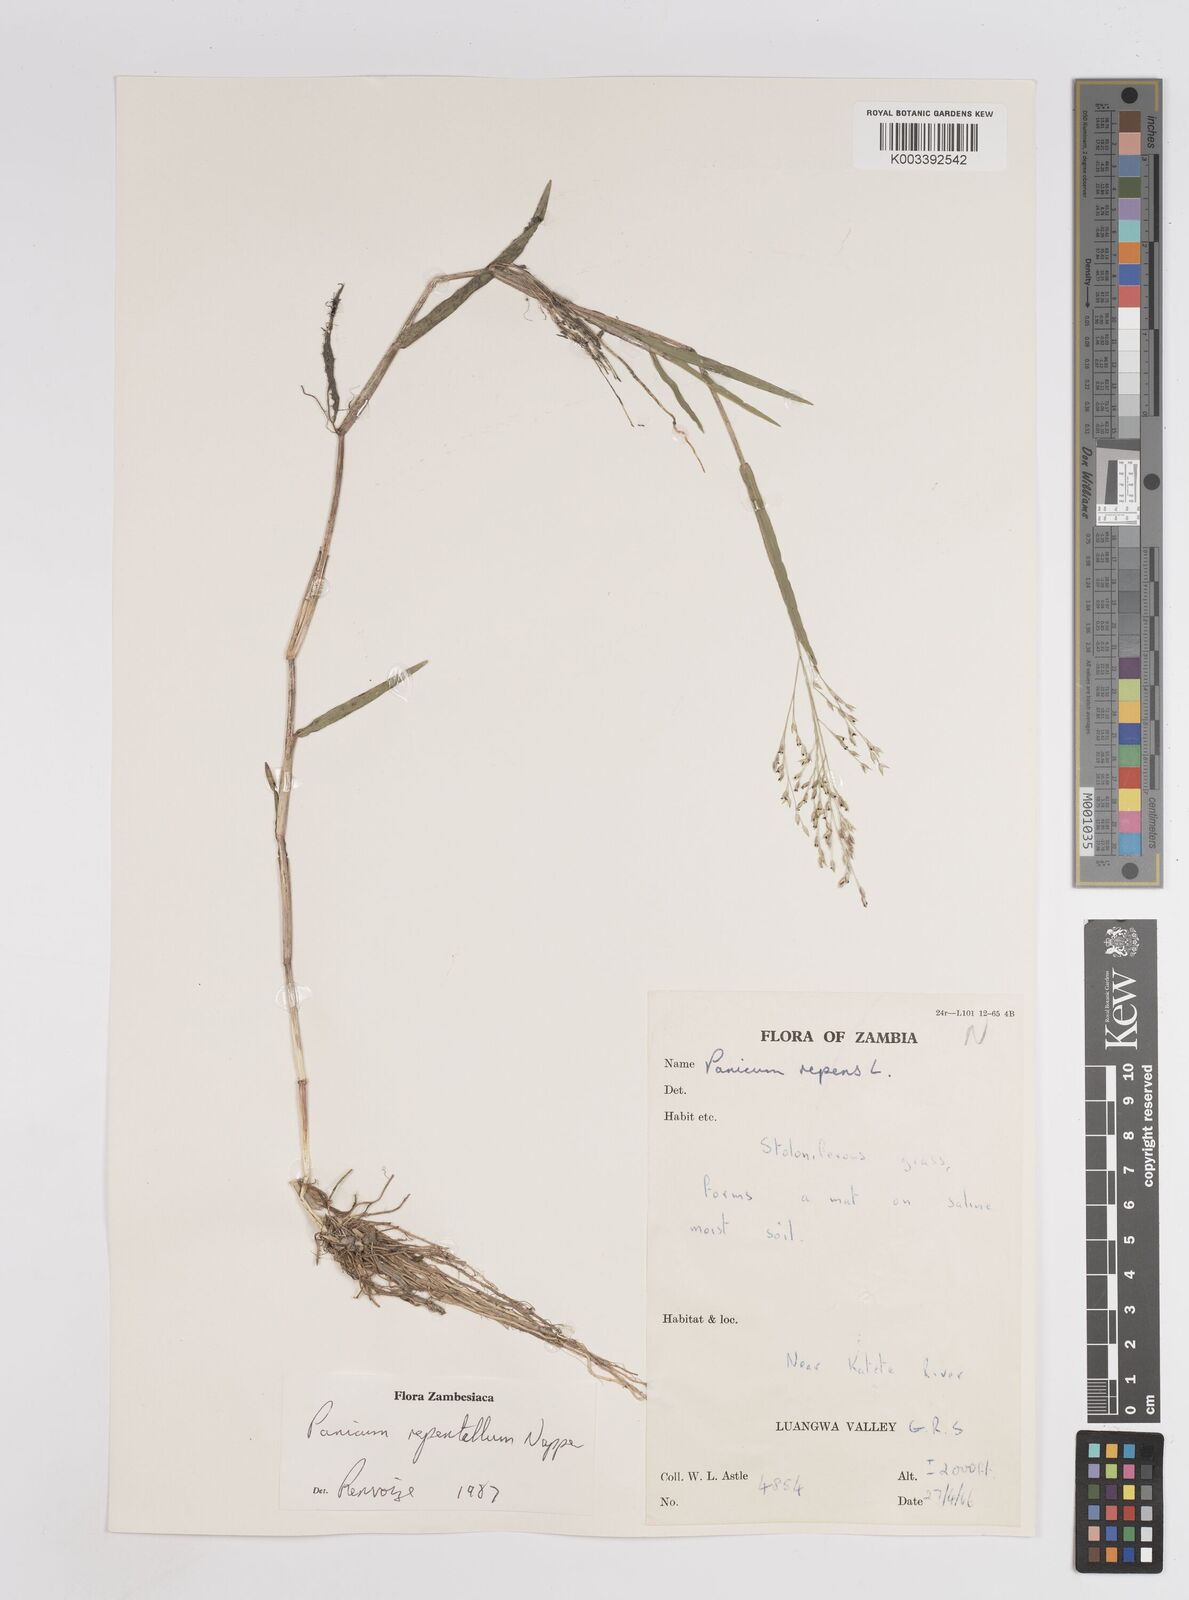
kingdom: Plantae
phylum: Tracheophyta
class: Liliopsida
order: Poales
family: Poaceae
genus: Panicum
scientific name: Panicum hygrocharis
